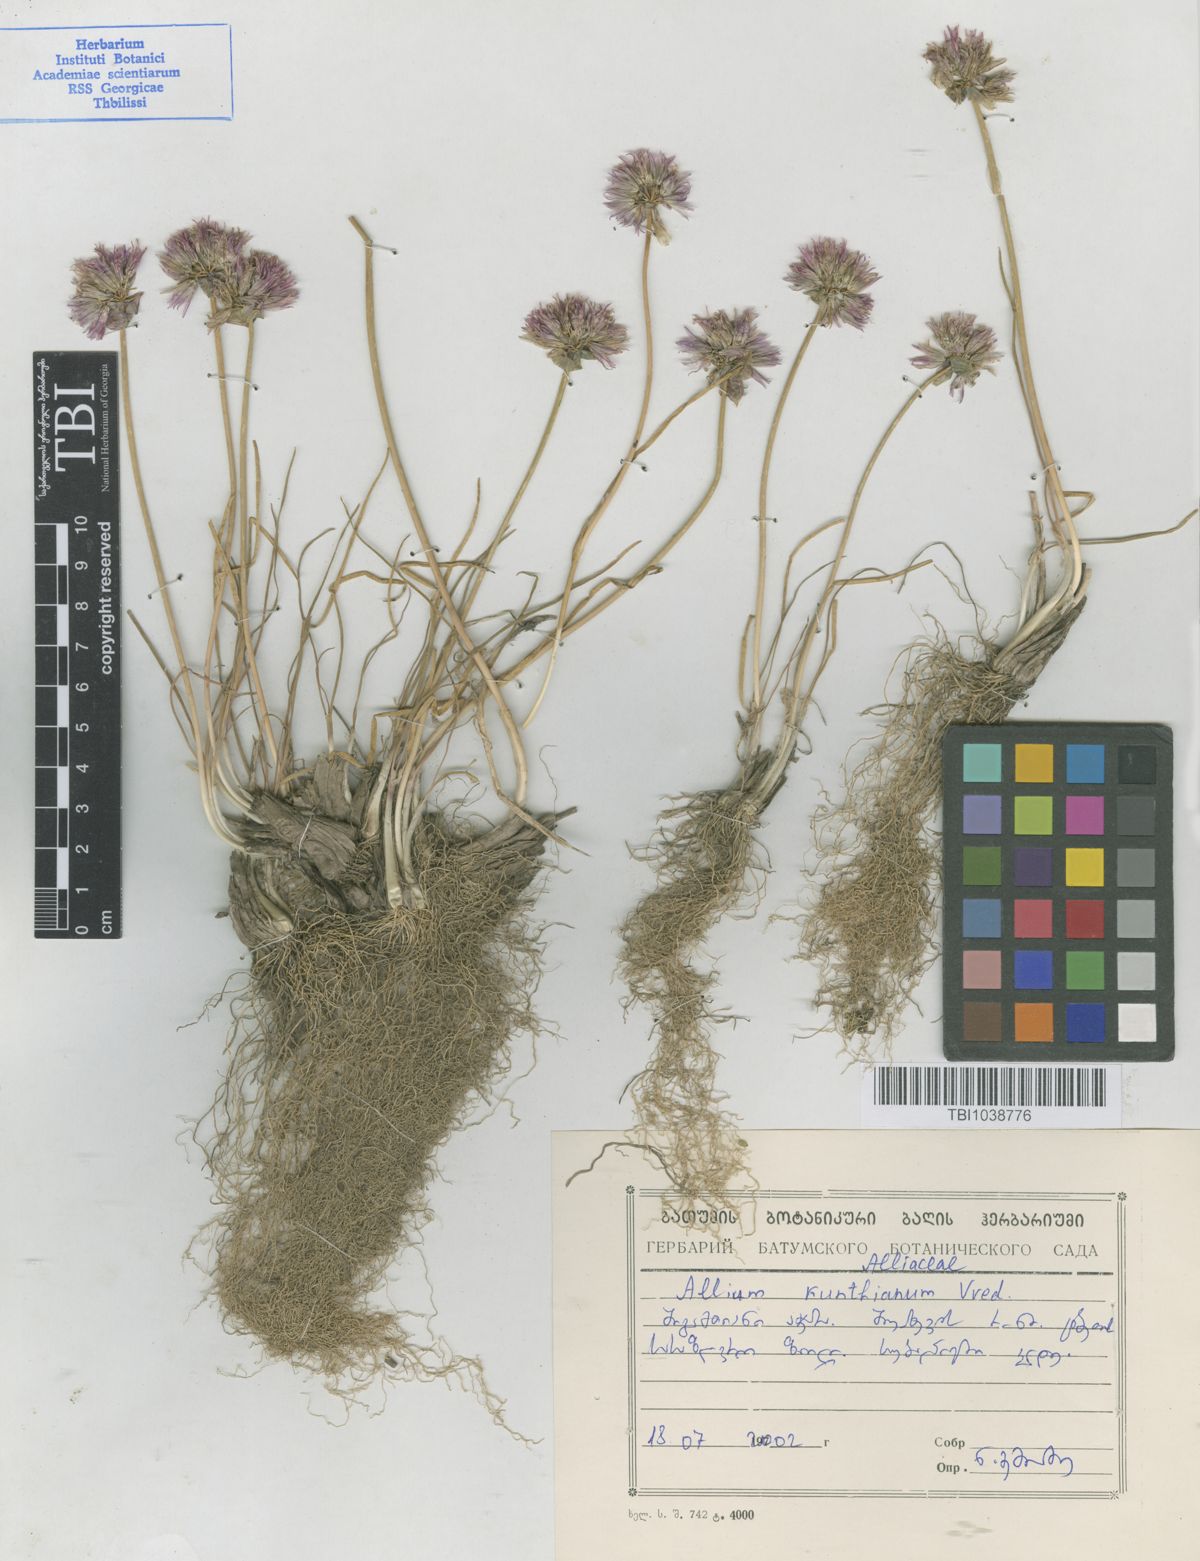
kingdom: Plantae
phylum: Tracheophyta
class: Liliopsida
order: Asparagales
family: Amaryllidaceae
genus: Allium
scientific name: Allium kunthianum
